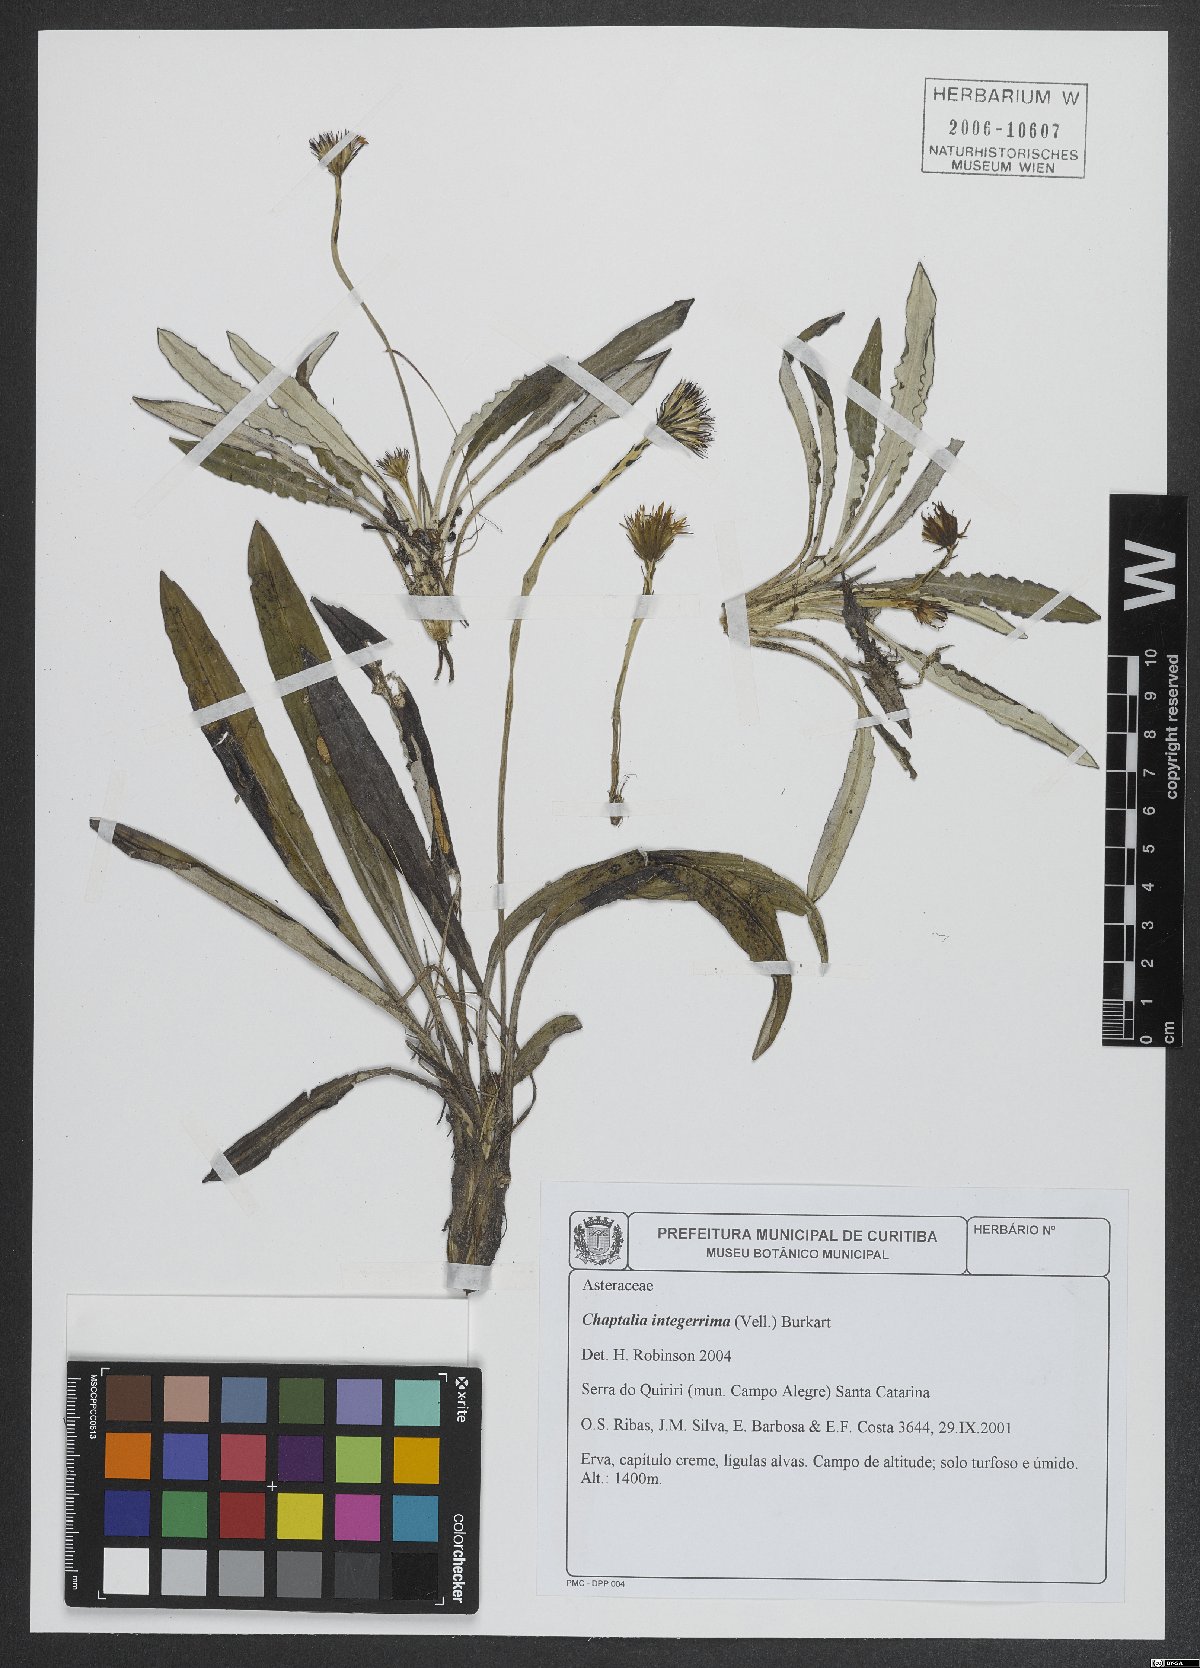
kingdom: Plantae
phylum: Tracheophyta
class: Magnoliopsida
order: Asterales
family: Asteraceae
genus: Chaptalia
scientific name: Chaptalia integerrima
